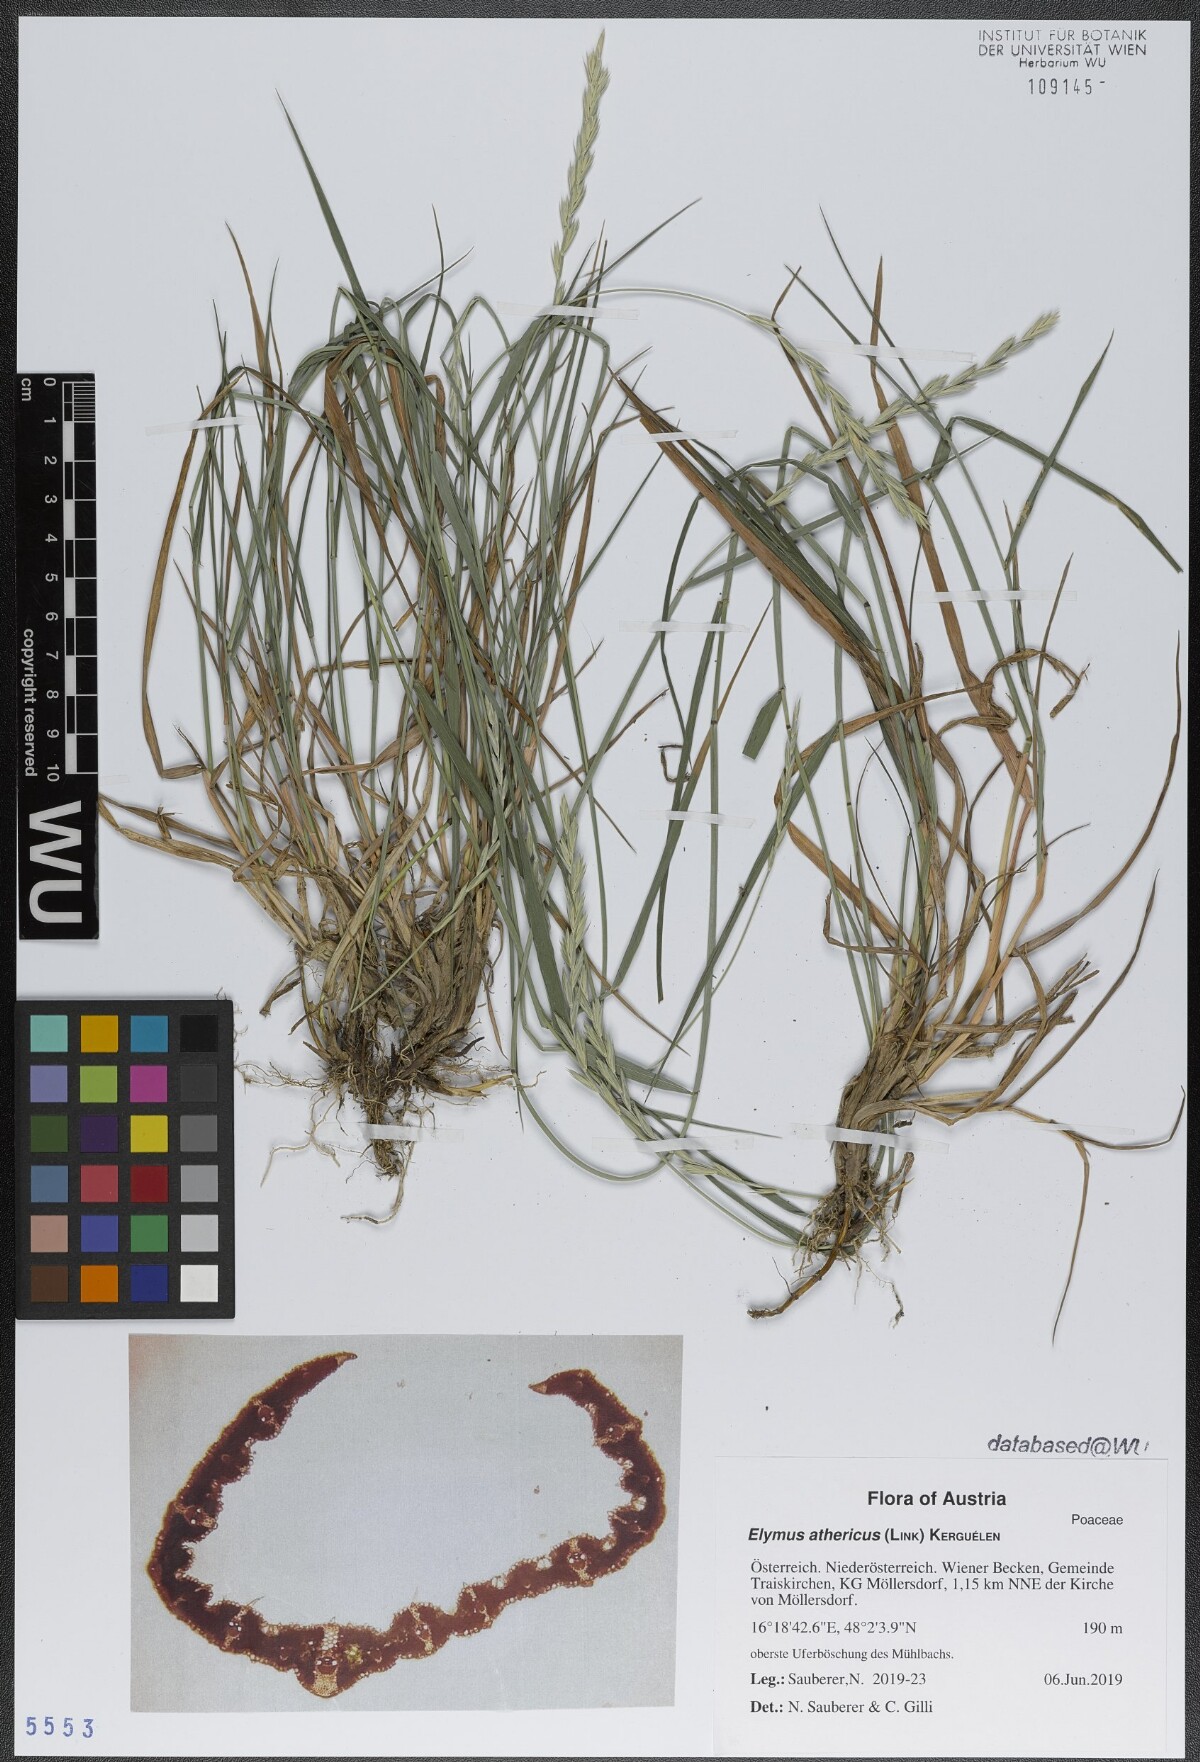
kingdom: Plantae
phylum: Tracheophyta
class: Liliopsida
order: Poales
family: Poaceae
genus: Elymus
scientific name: Elymus athericus
